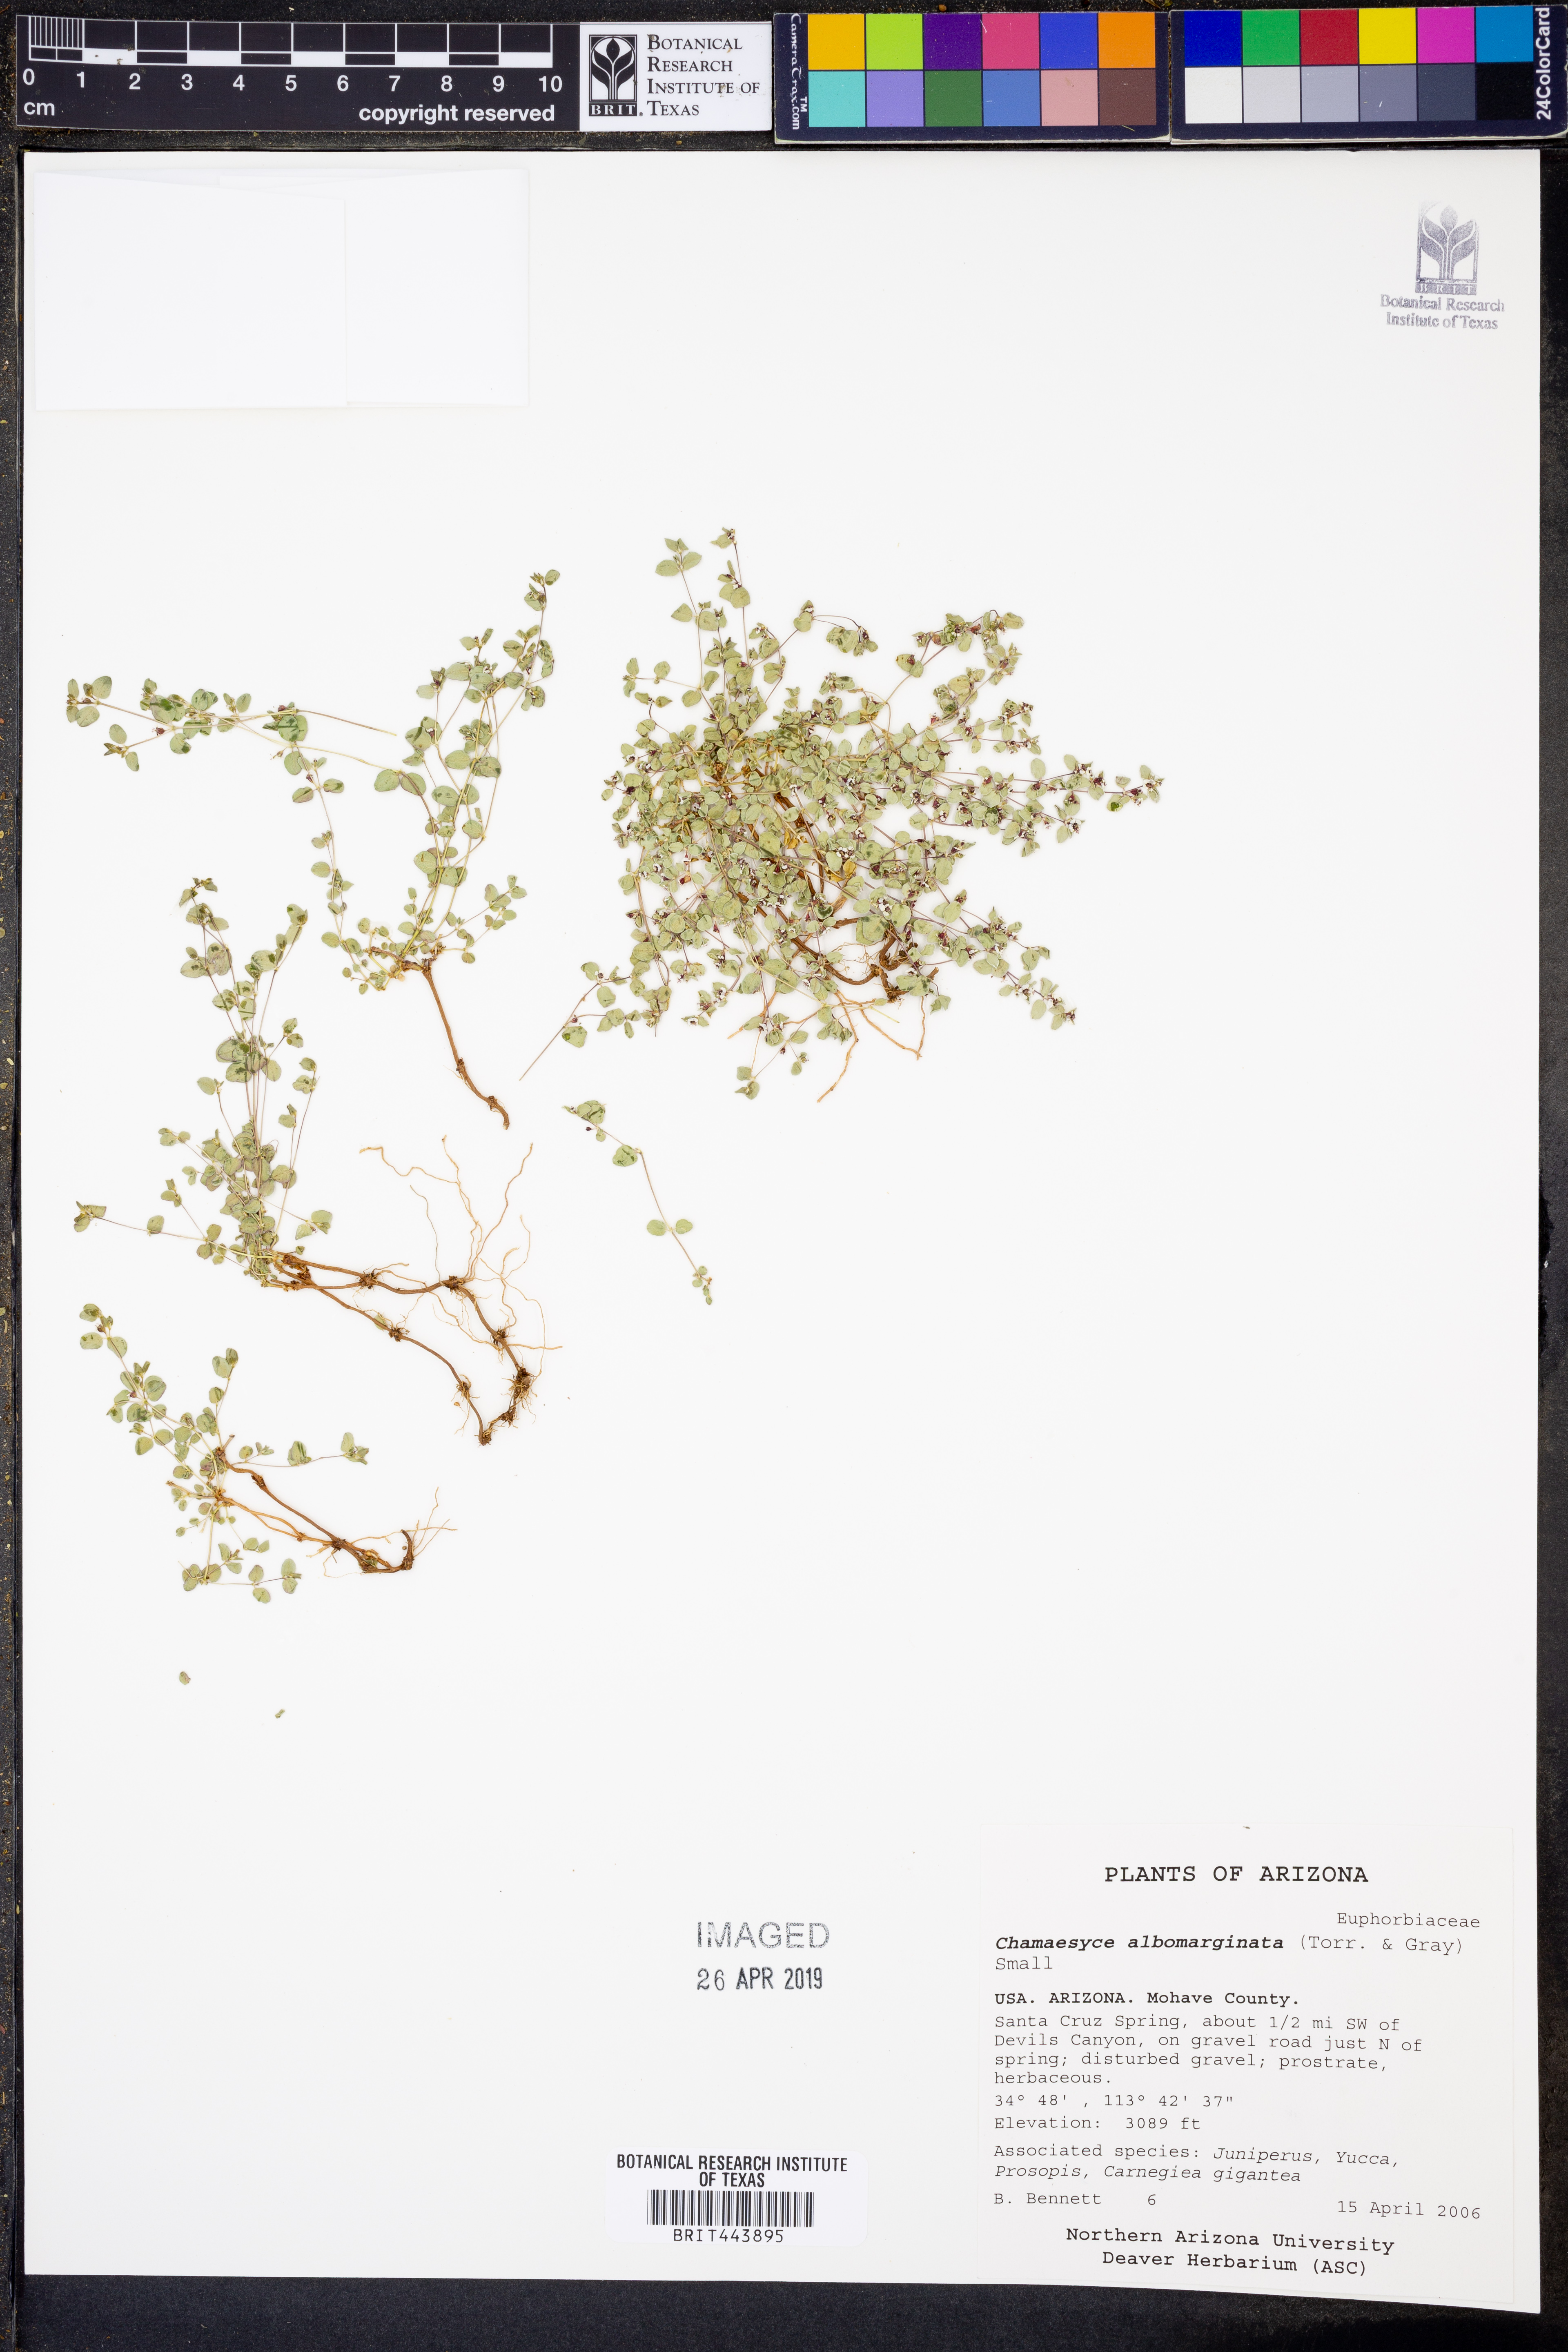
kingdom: Plantae
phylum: Tracheophyta
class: Magnoliopsida
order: Malpighiales
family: Euphorbiaceae
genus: Euphorbia
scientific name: Euphorbia albomarginata
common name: Whitemargin sandmat
